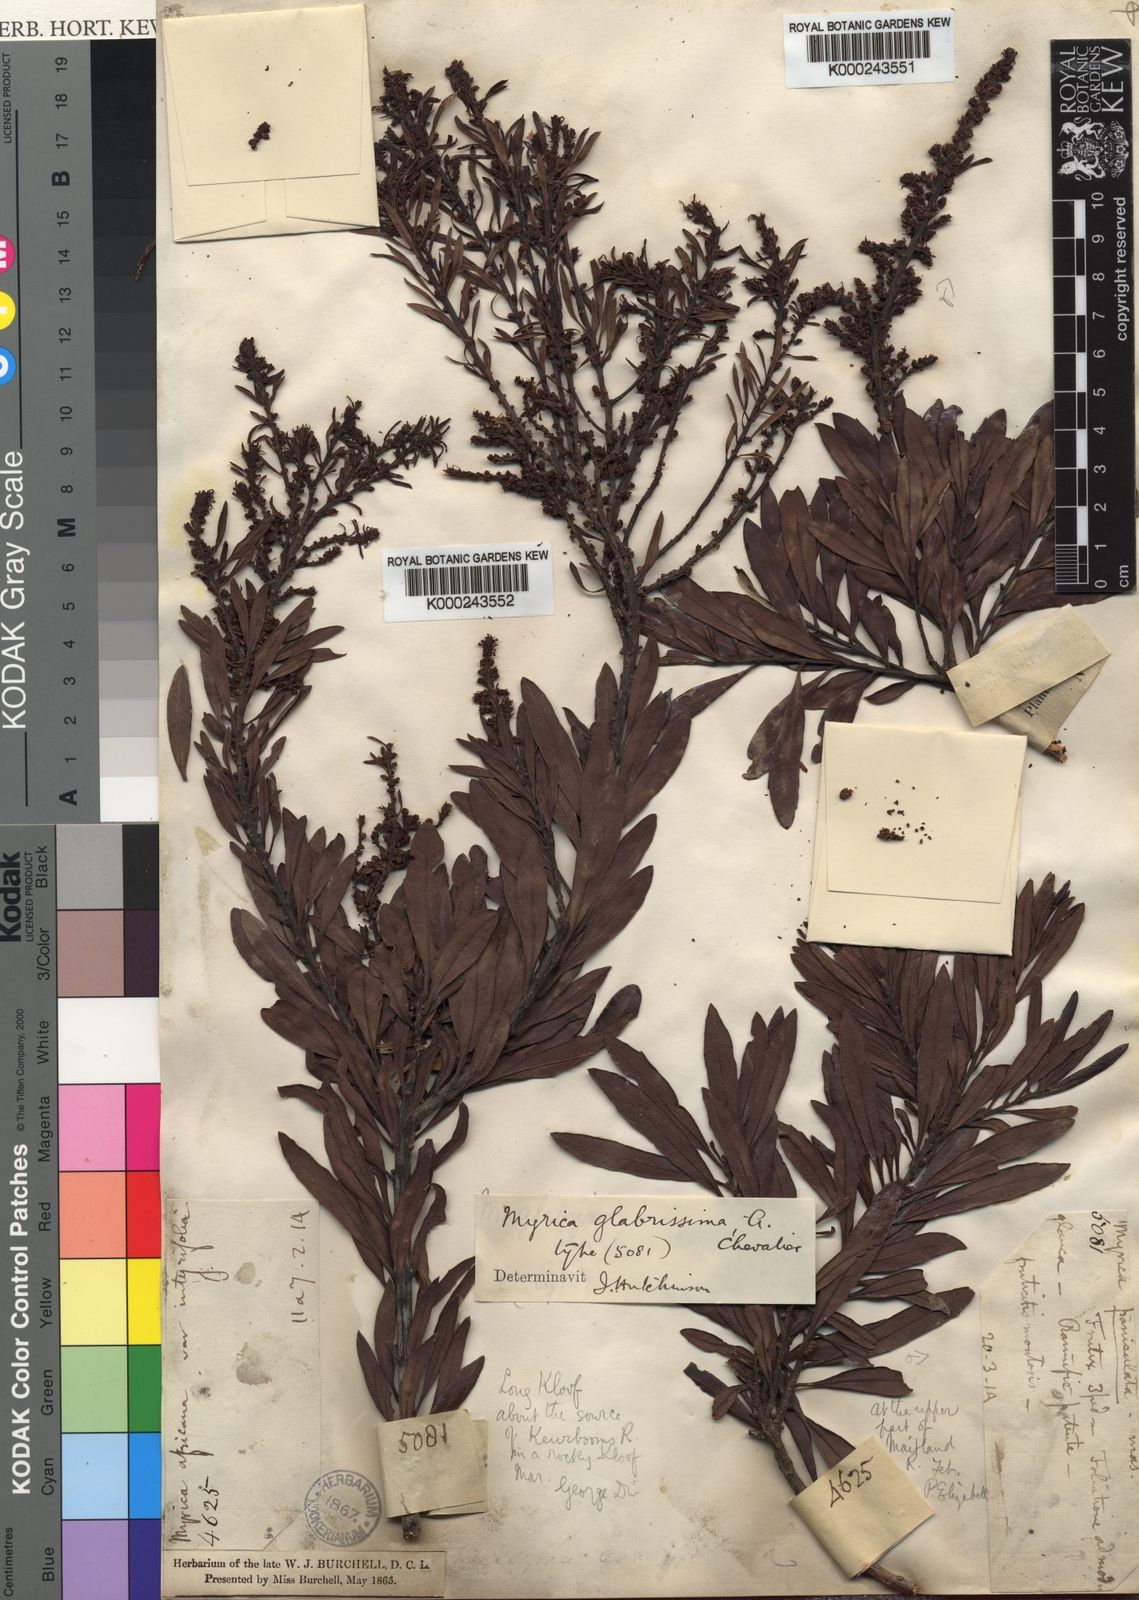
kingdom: Plantae
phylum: Tracheophyta
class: Magnoliopsida
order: Fagales
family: Myricaceae
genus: Myrica
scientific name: Myrica
